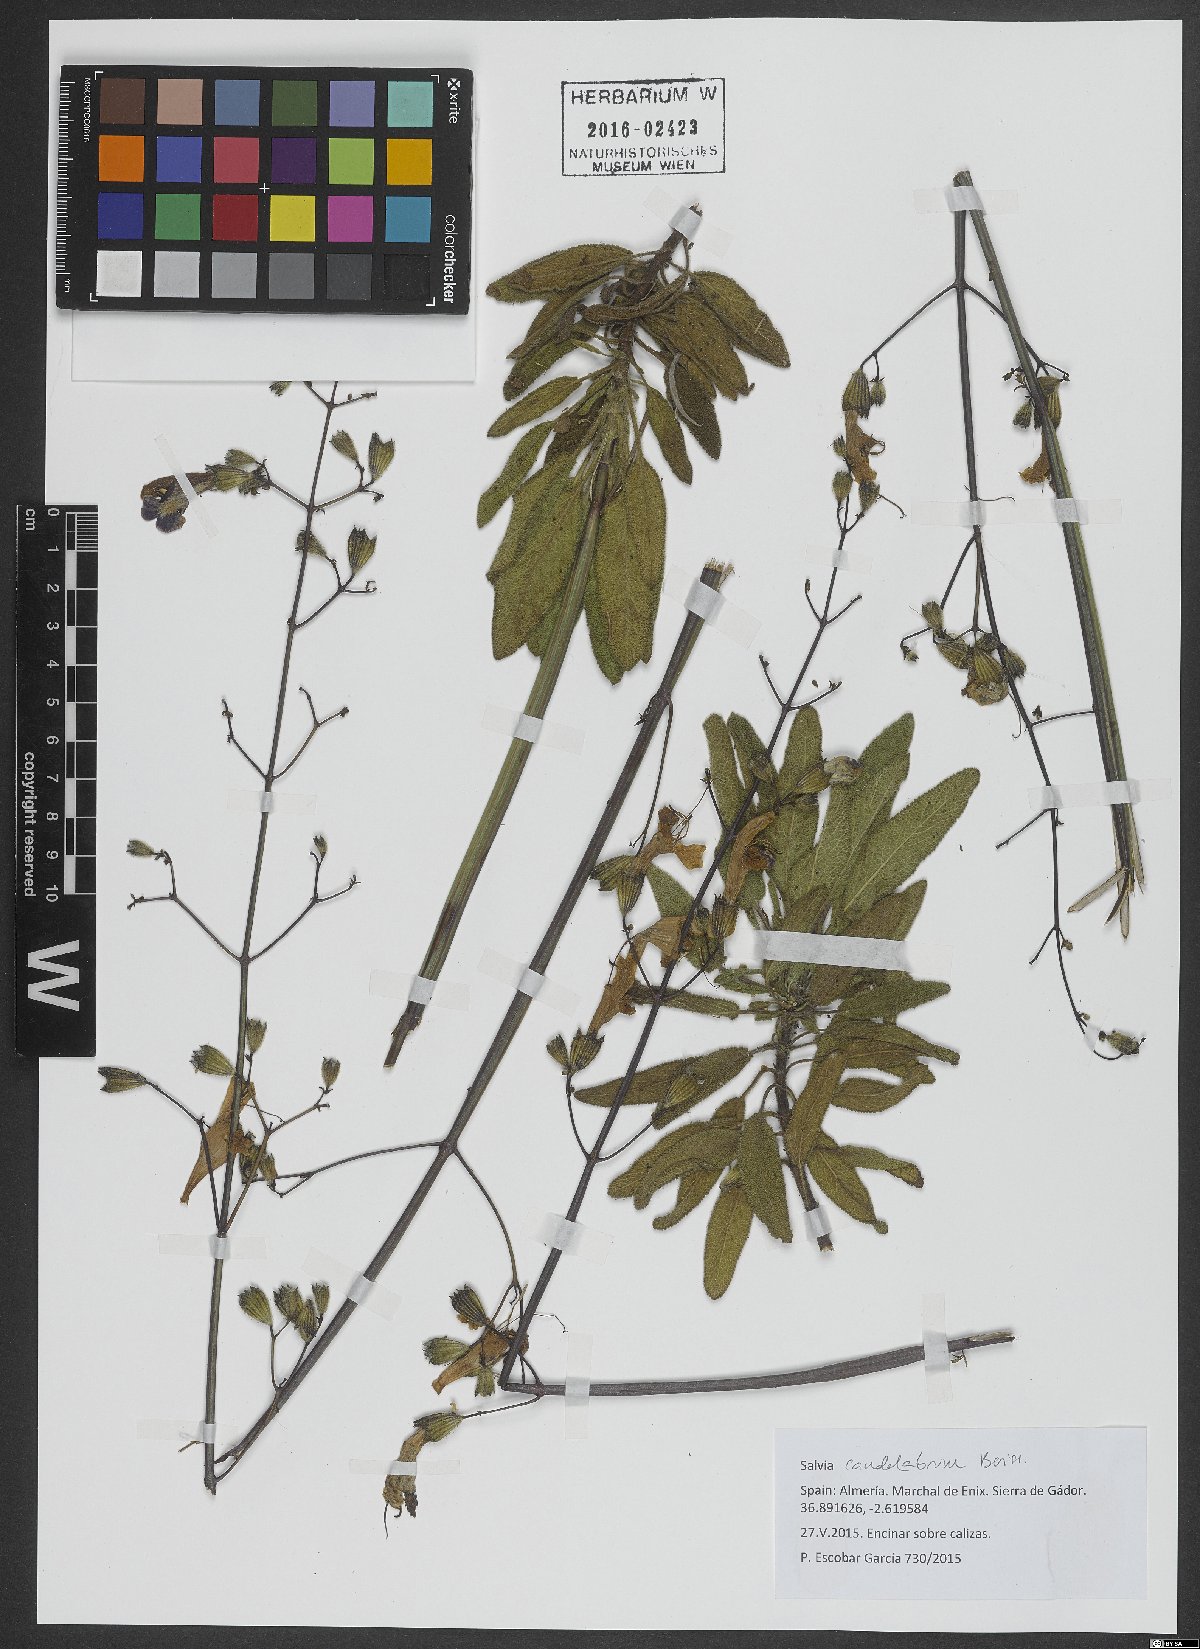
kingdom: Plantae
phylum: Tracheophyta
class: Magnoliopsida
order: Lamiales
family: Lamiaceae
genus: Salvia
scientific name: Salvia candelabrum
